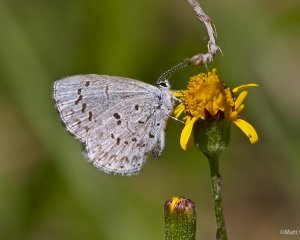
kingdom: Animalia
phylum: Arthropoda
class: Insecta
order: Lepidoptera
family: Lycaenidae
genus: Celastrina
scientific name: Celastrina serotina
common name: Cherry Gall Azure
